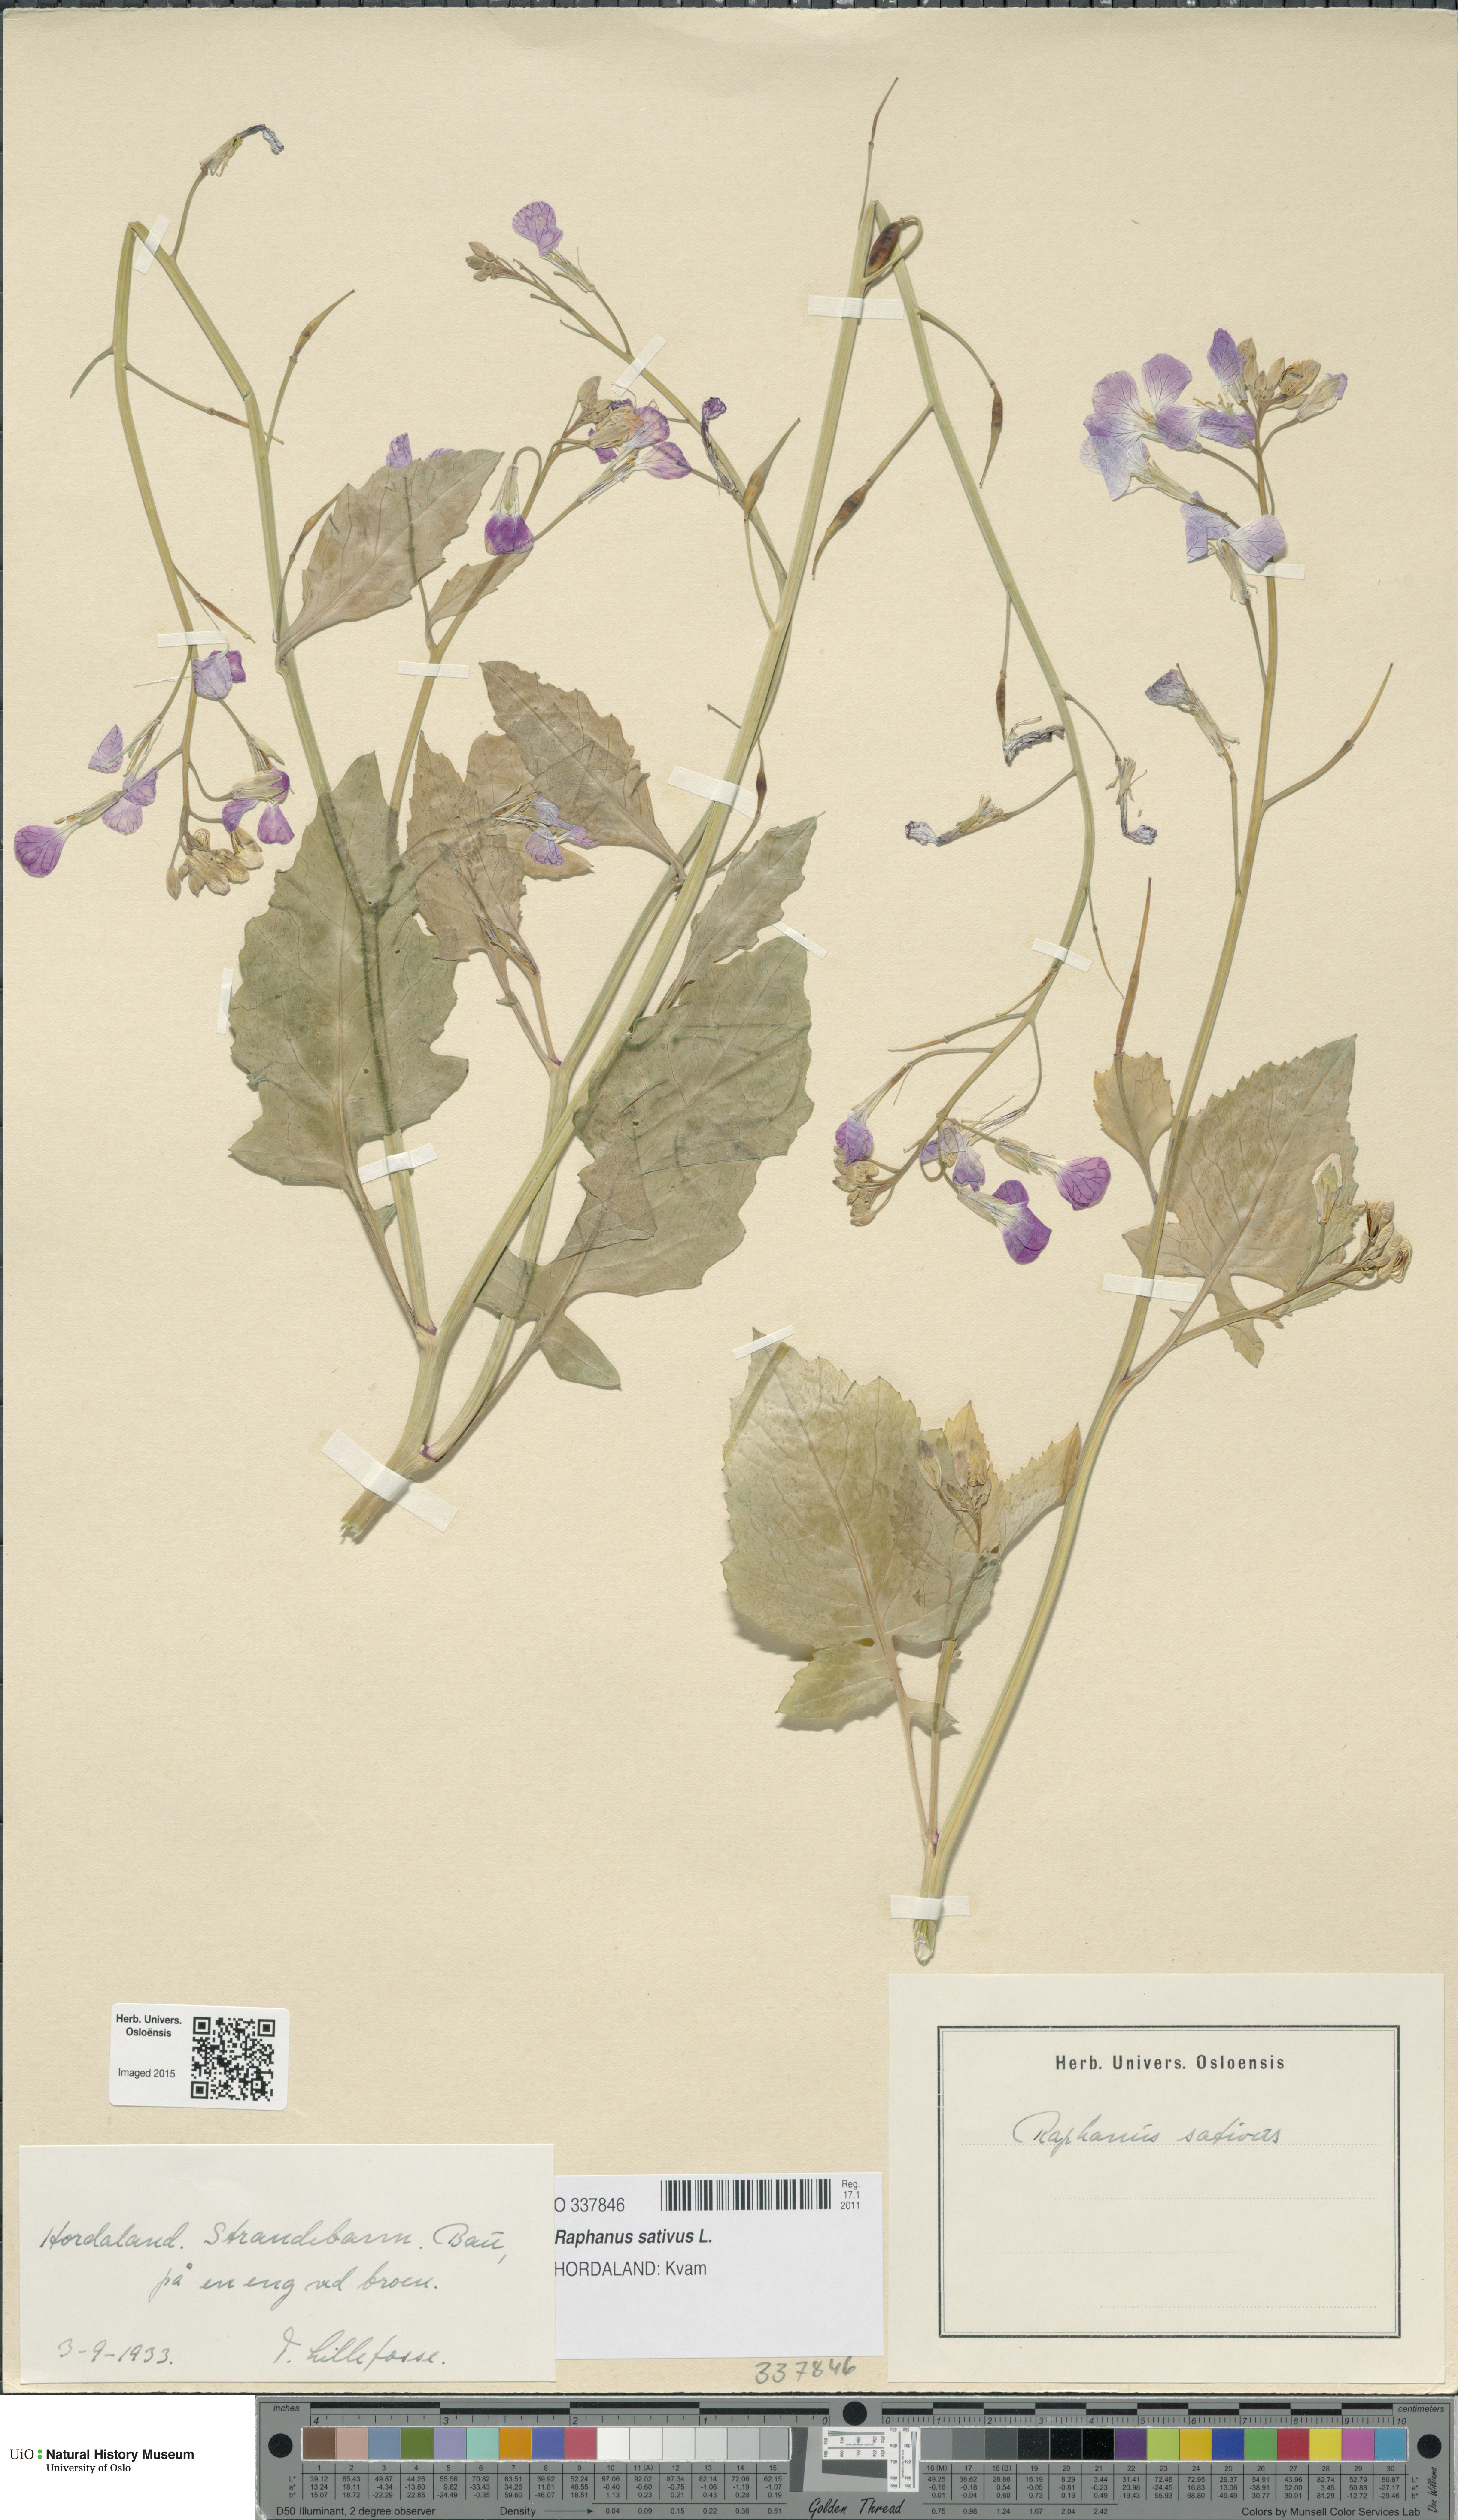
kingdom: Plantae
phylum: Tracheophyta
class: Magnoliopsida
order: Brassicales
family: Brassicaceae
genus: Raphanus
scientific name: Raphanus sativus
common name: Cultivated radish
